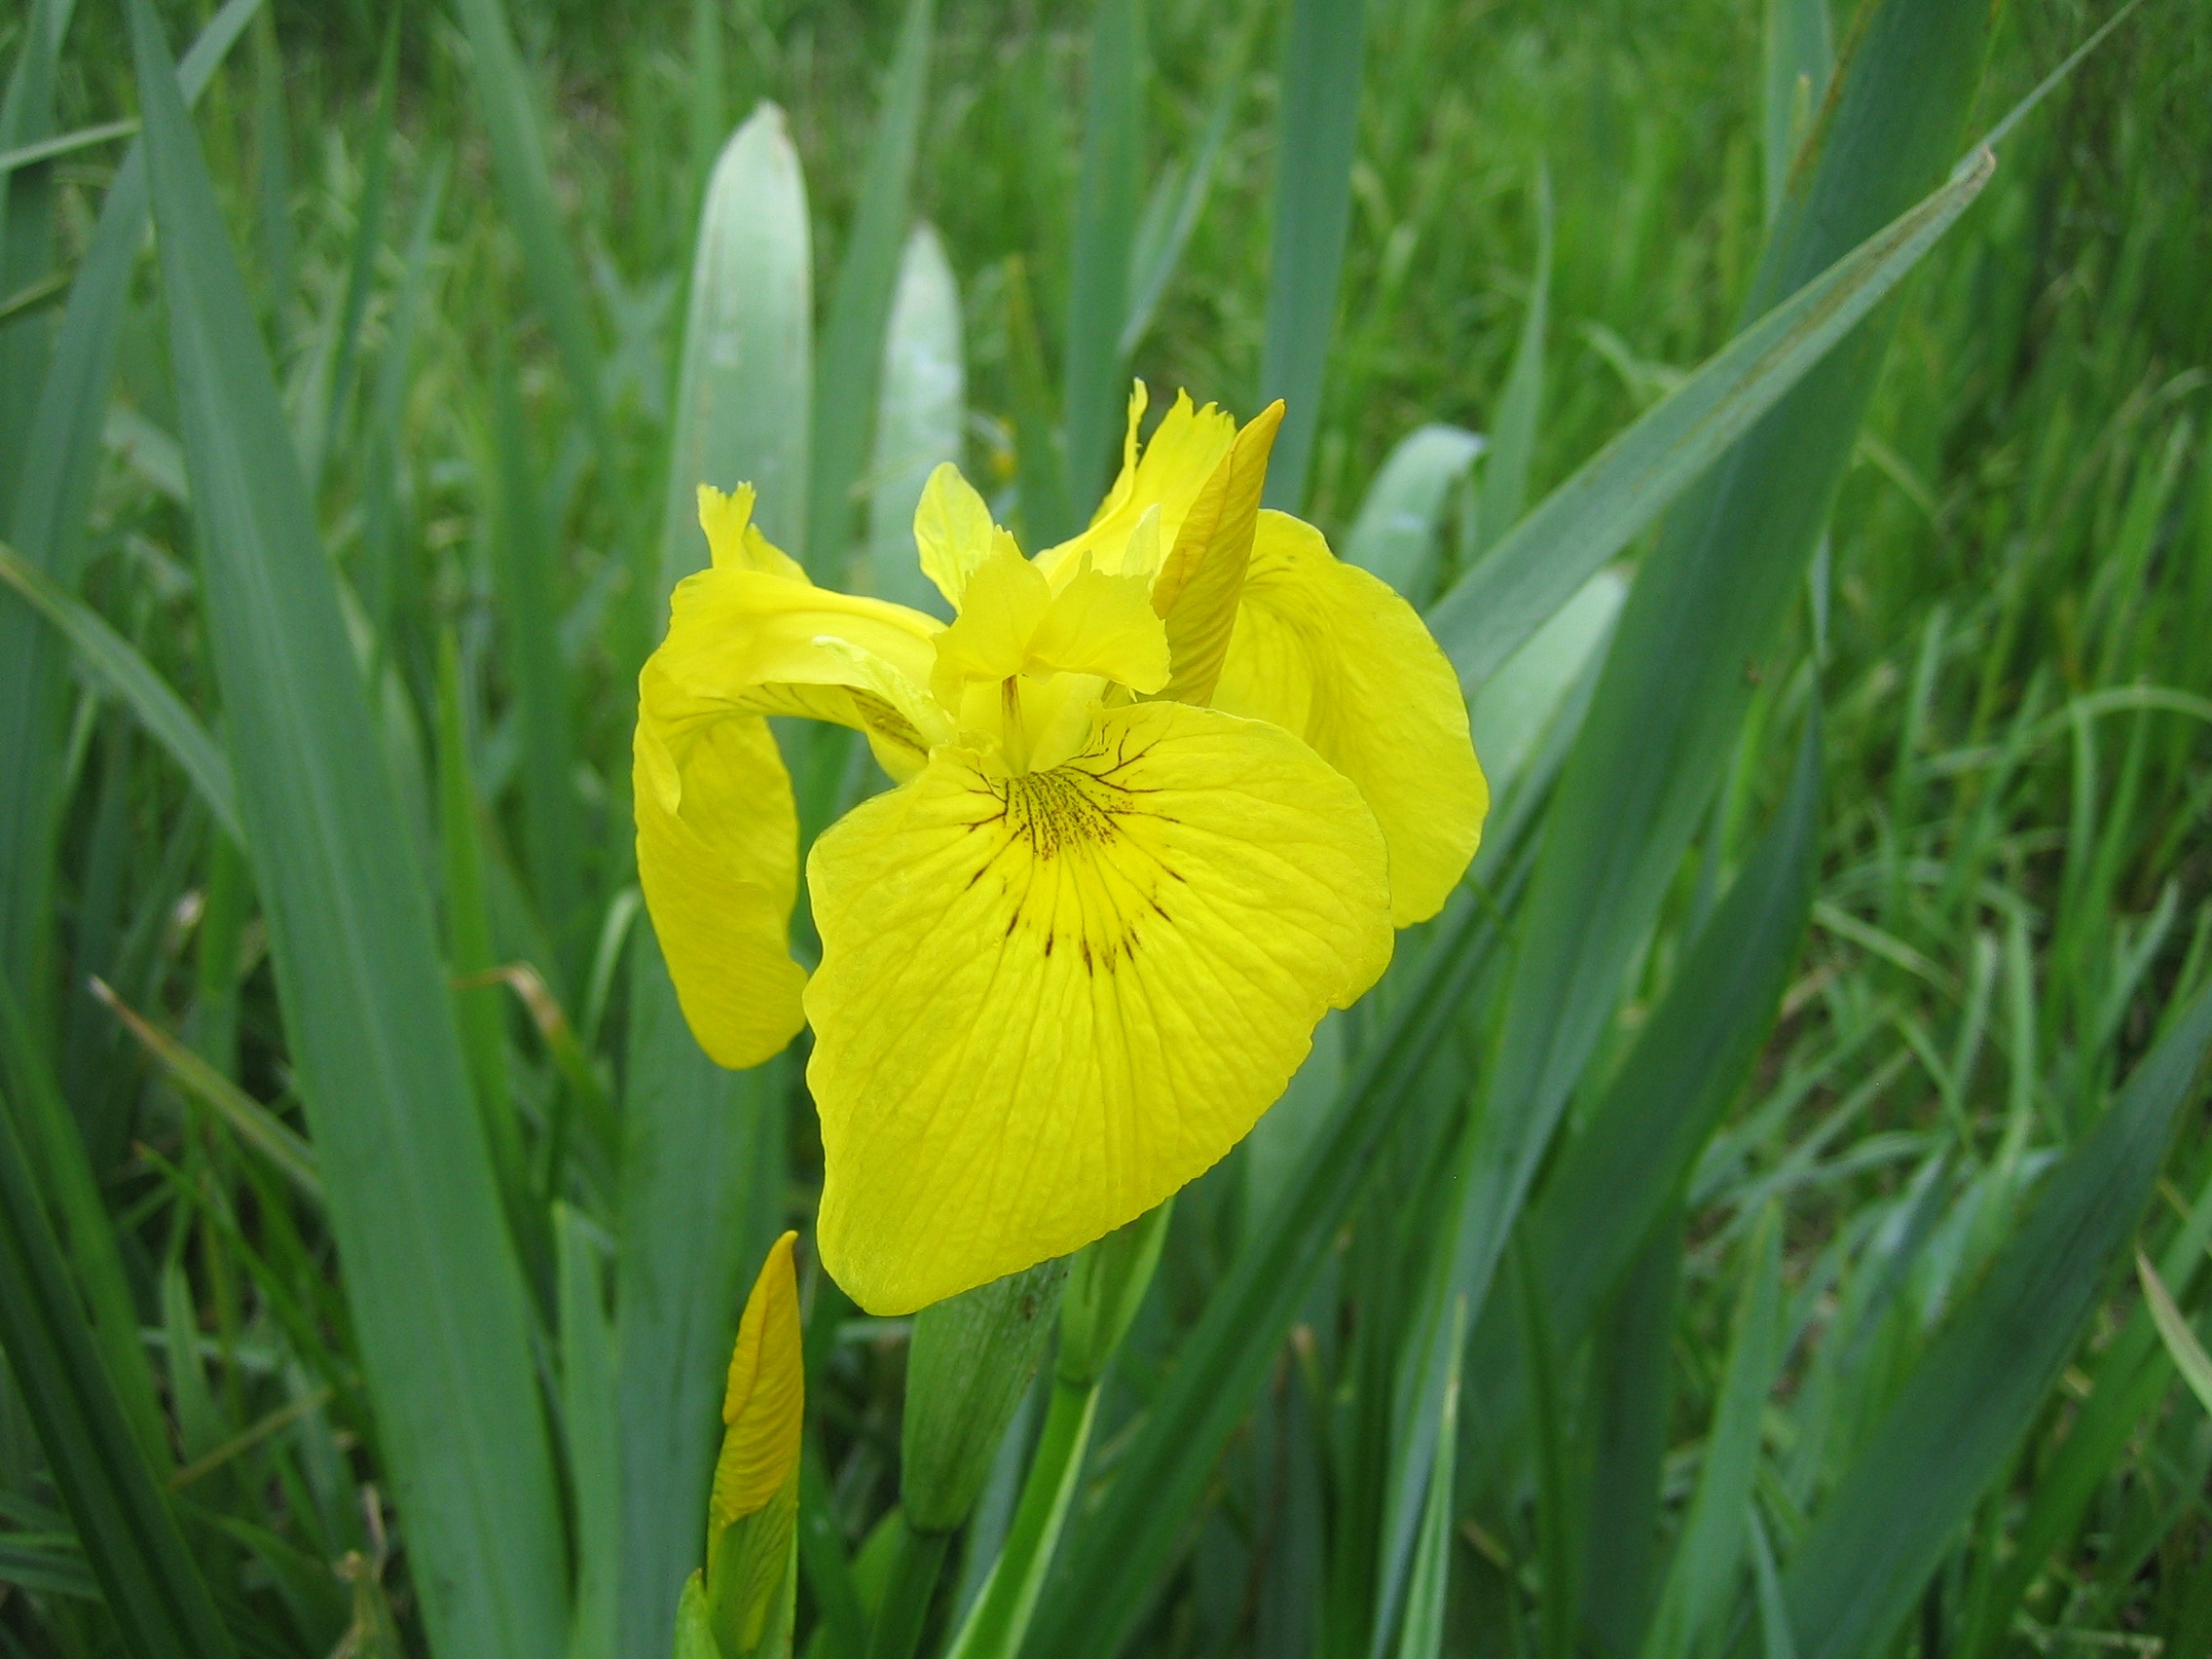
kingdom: Plantae
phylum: Tracheophyta
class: Liliopsida
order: Asparagales
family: Iridaceae
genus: Iris
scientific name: Iris pseudacorus
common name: Gul iris
